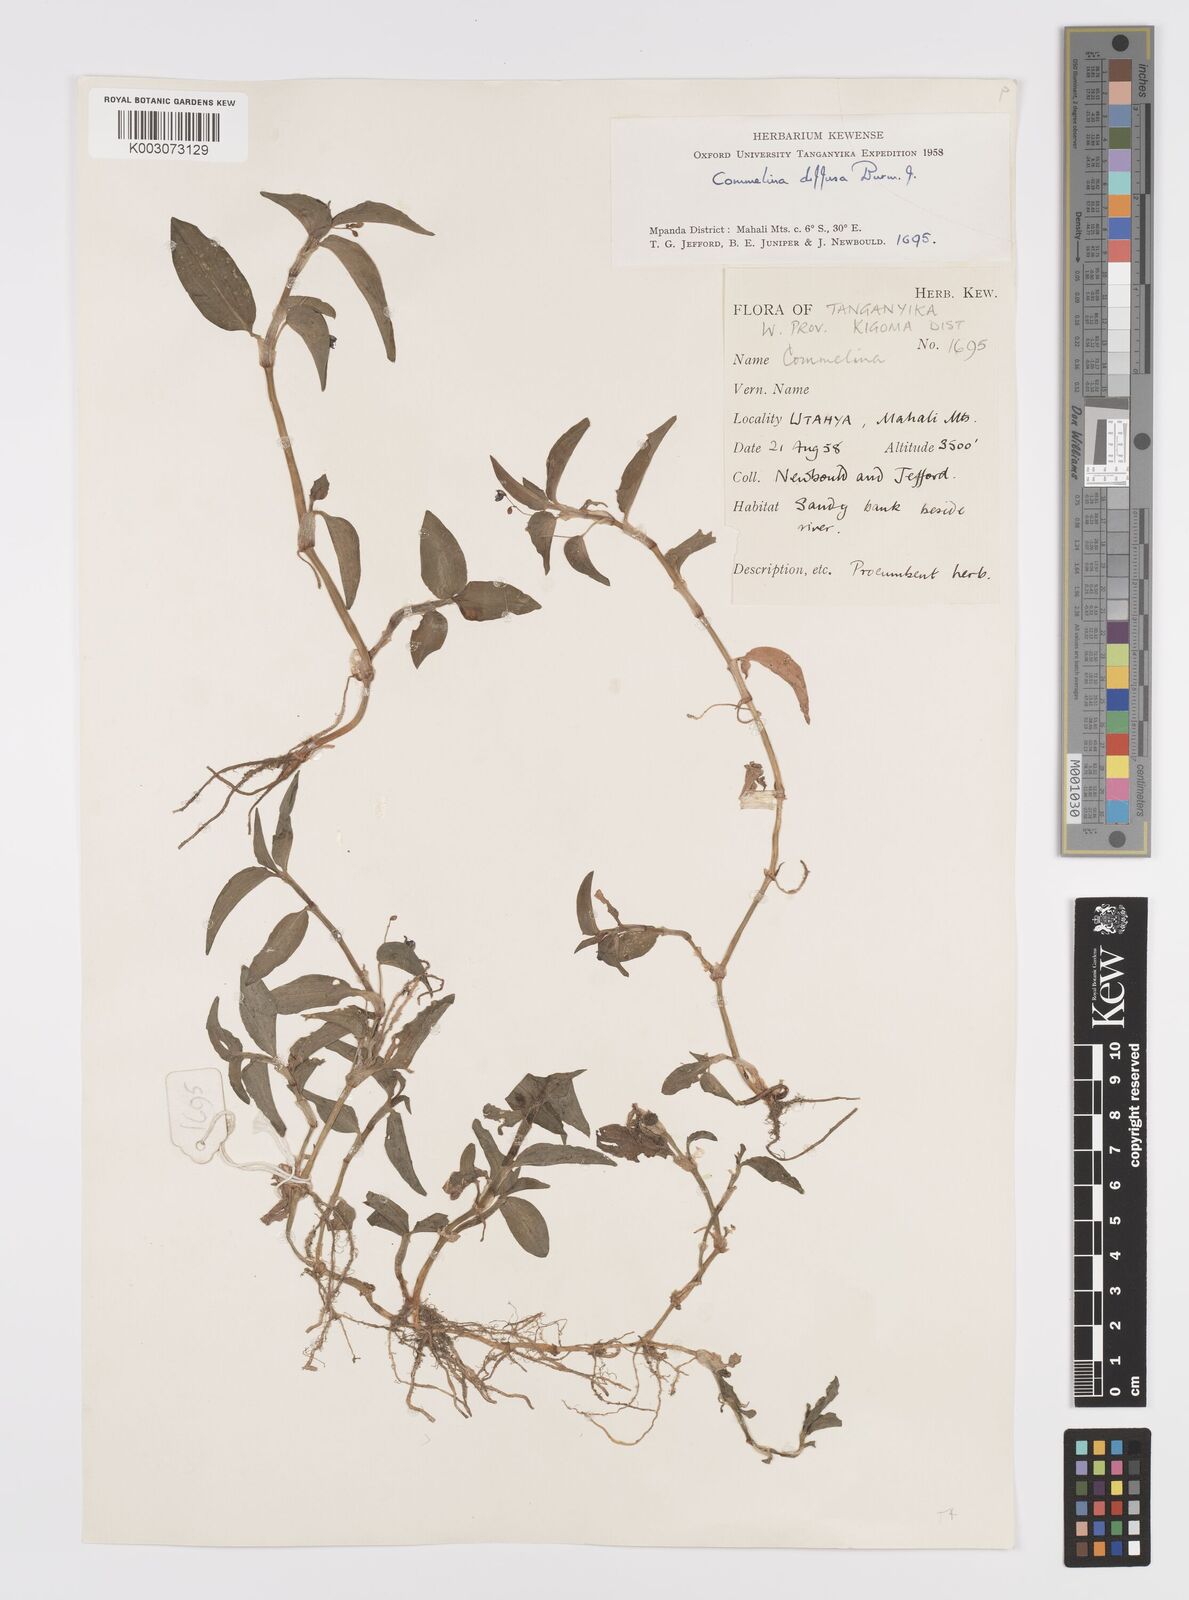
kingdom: Plantae
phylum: Tracheophyta
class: Liliopsida
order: Commelinales
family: Commelinaceae
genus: Commelina
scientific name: Commelina diffusa
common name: Climbing dayflower
